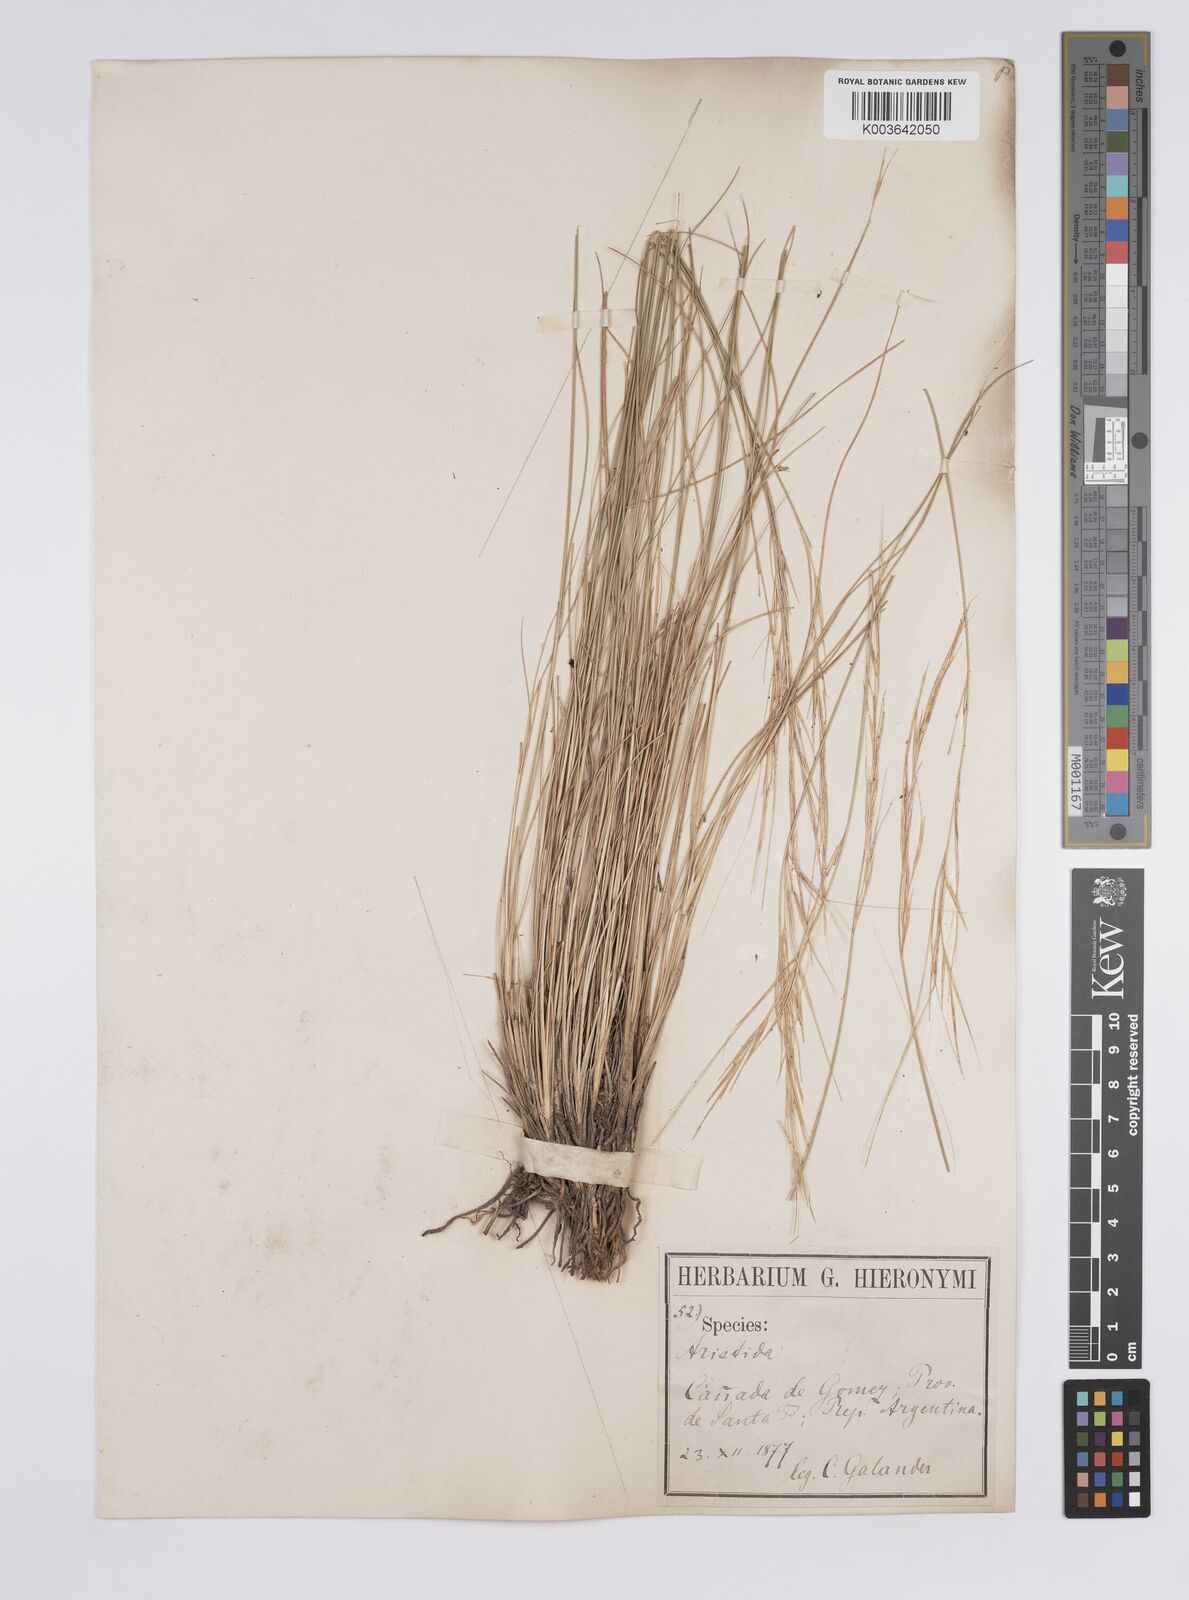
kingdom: Plantae
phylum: Tracheophyta
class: Liliopsida
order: Poales
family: Poaceae
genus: Aristida
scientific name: Aristida pallens
